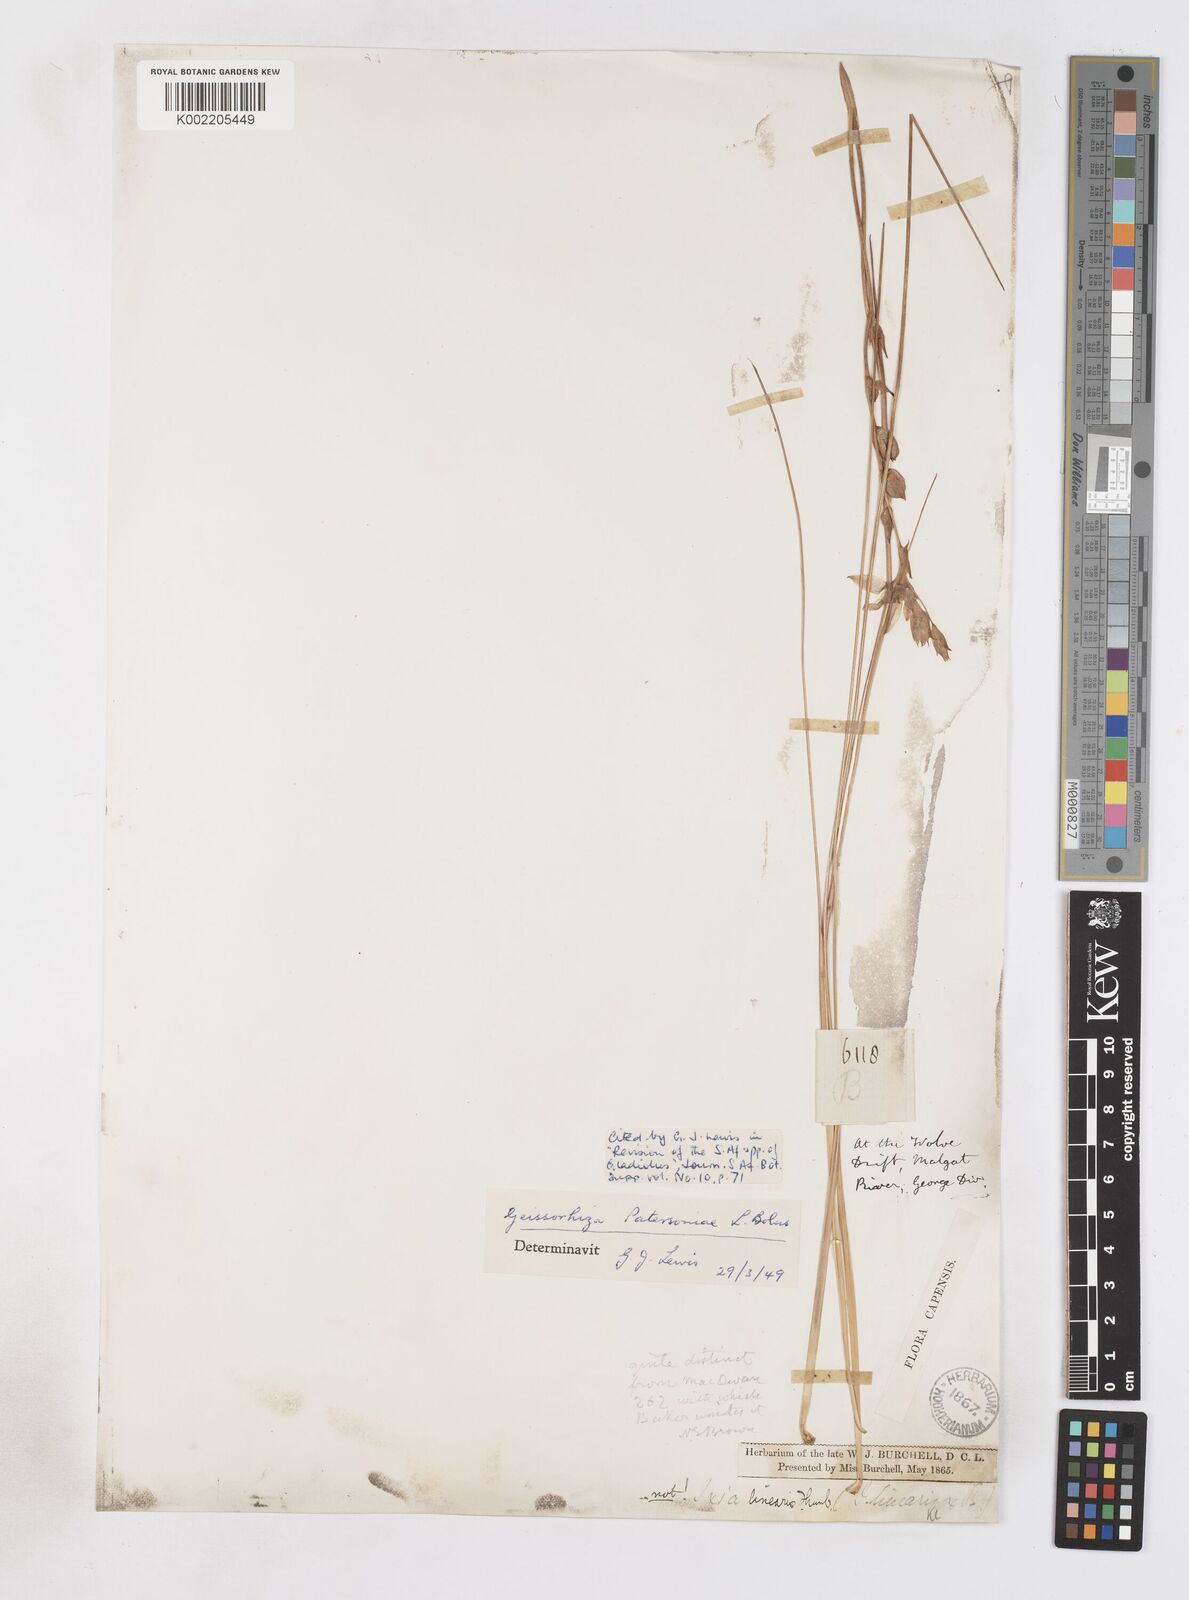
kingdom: Plantae
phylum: Tracheophyta
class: Liliopsida
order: Asparagales
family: Iridaceae
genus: Gladiolus
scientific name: Gladiolus stellatus
